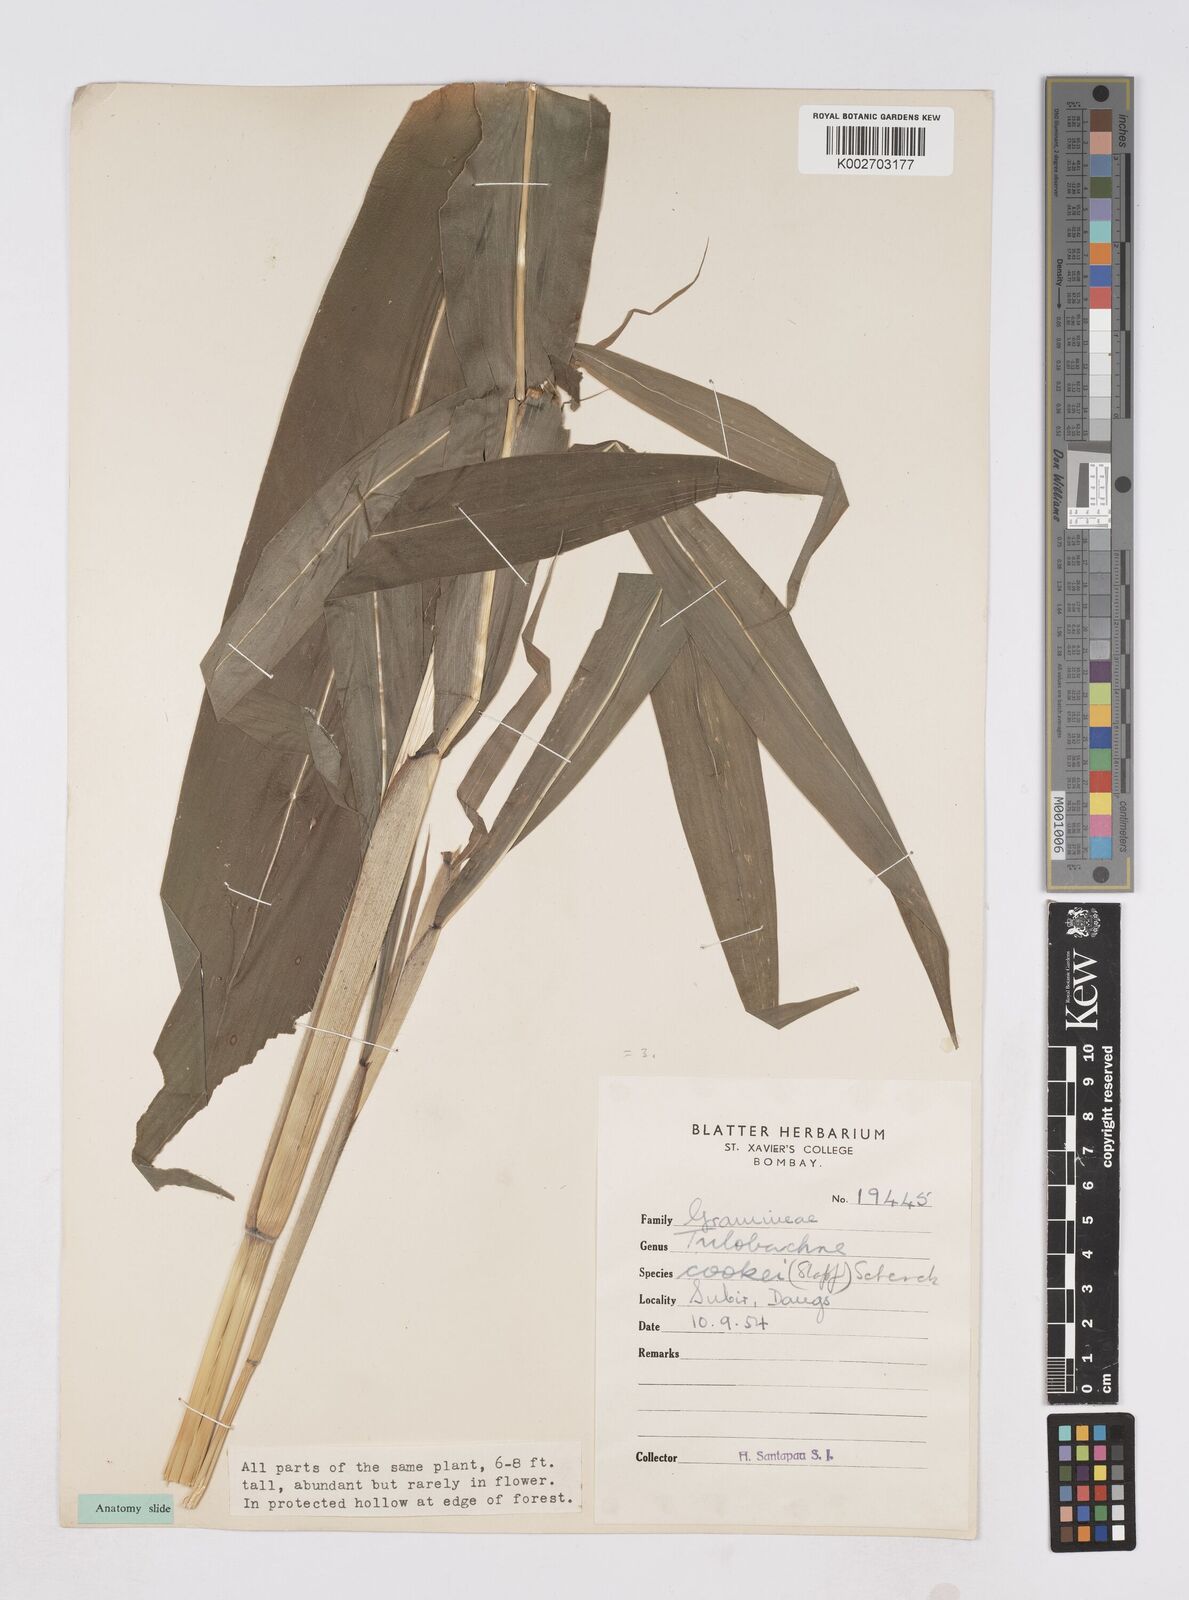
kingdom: Plantae
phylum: Tracheophyta
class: Liliopsida
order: Poales
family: Poaceae
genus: Trilobachne
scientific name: Trilobachne cookei
